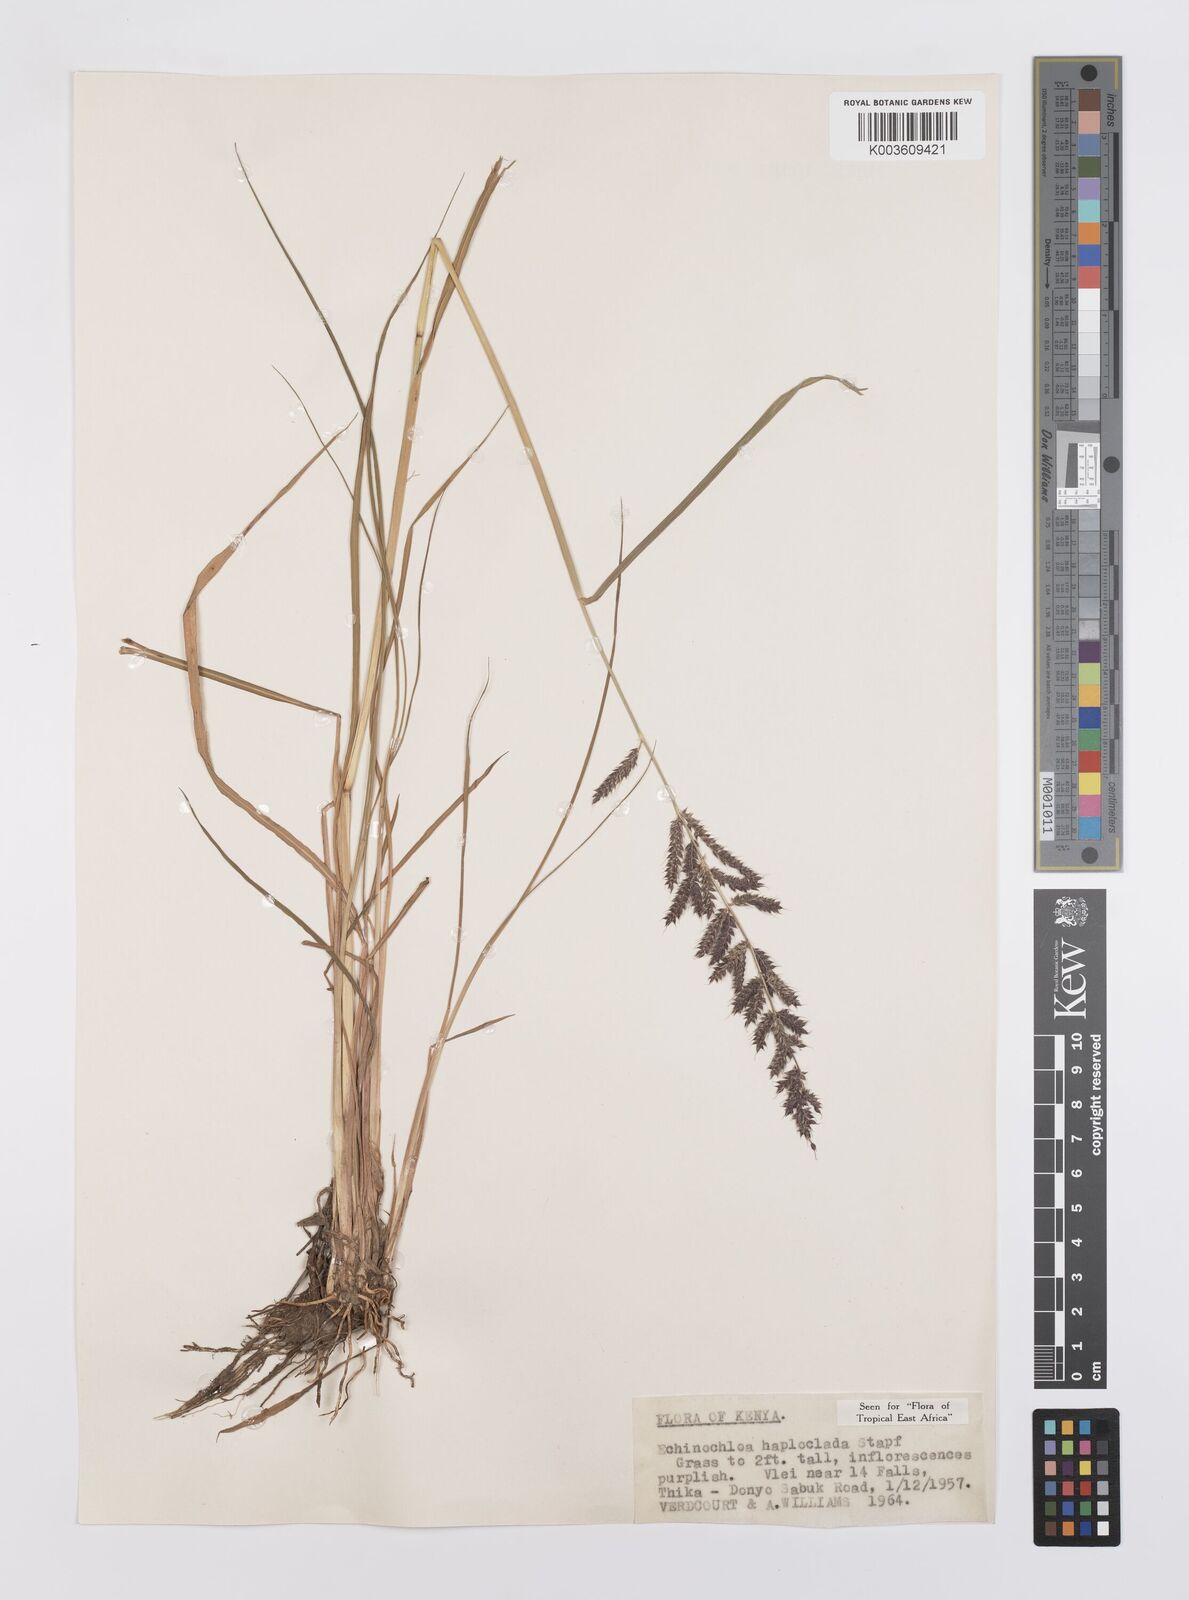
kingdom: Plantae
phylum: Tracheophyta
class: Liliopsida
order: Poales
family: Poaceae
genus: Echinochloa
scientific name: Echinochloa haploclada
